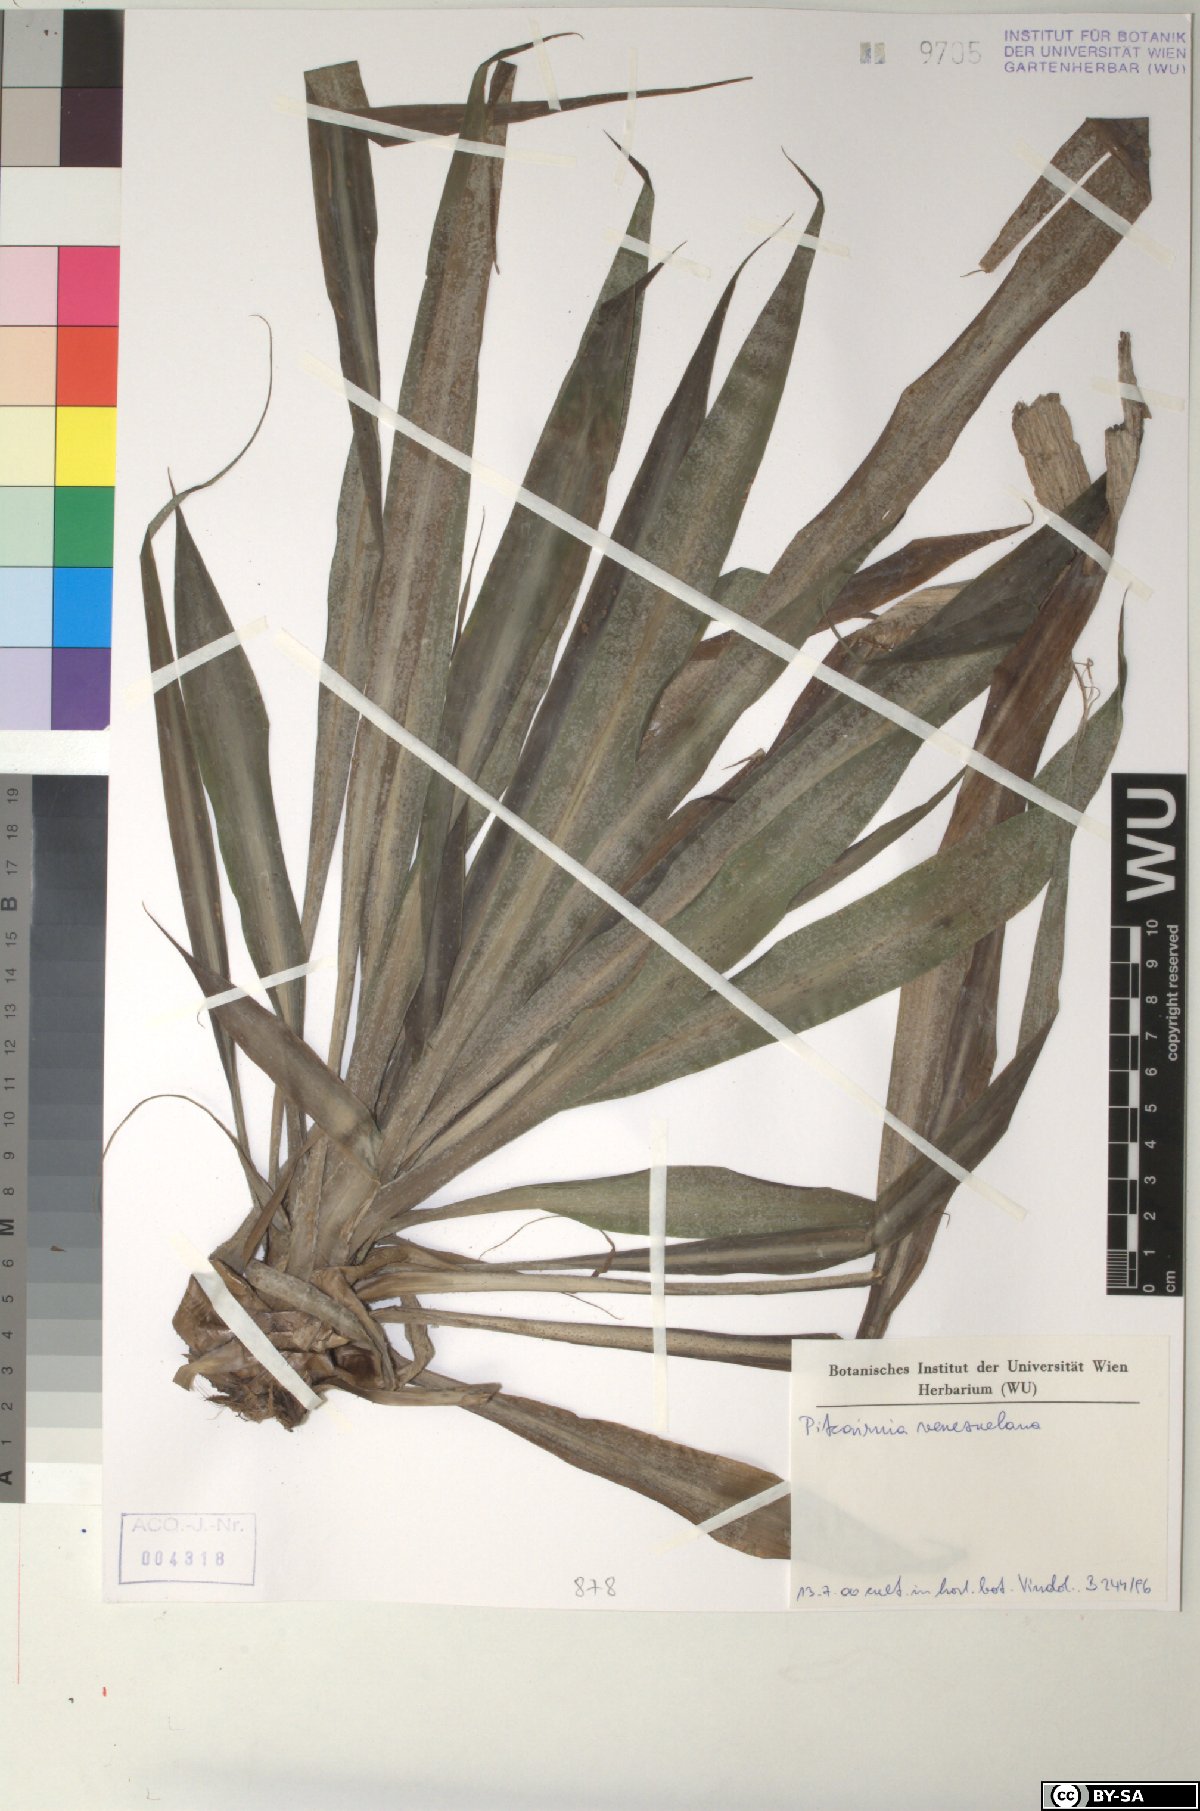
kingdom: Plantae
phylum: Tracheophyta
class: Liliopsida
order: Poales
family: Bromeliaceae
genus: Pitcairnia
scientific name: Pitcairnia venezuelana
